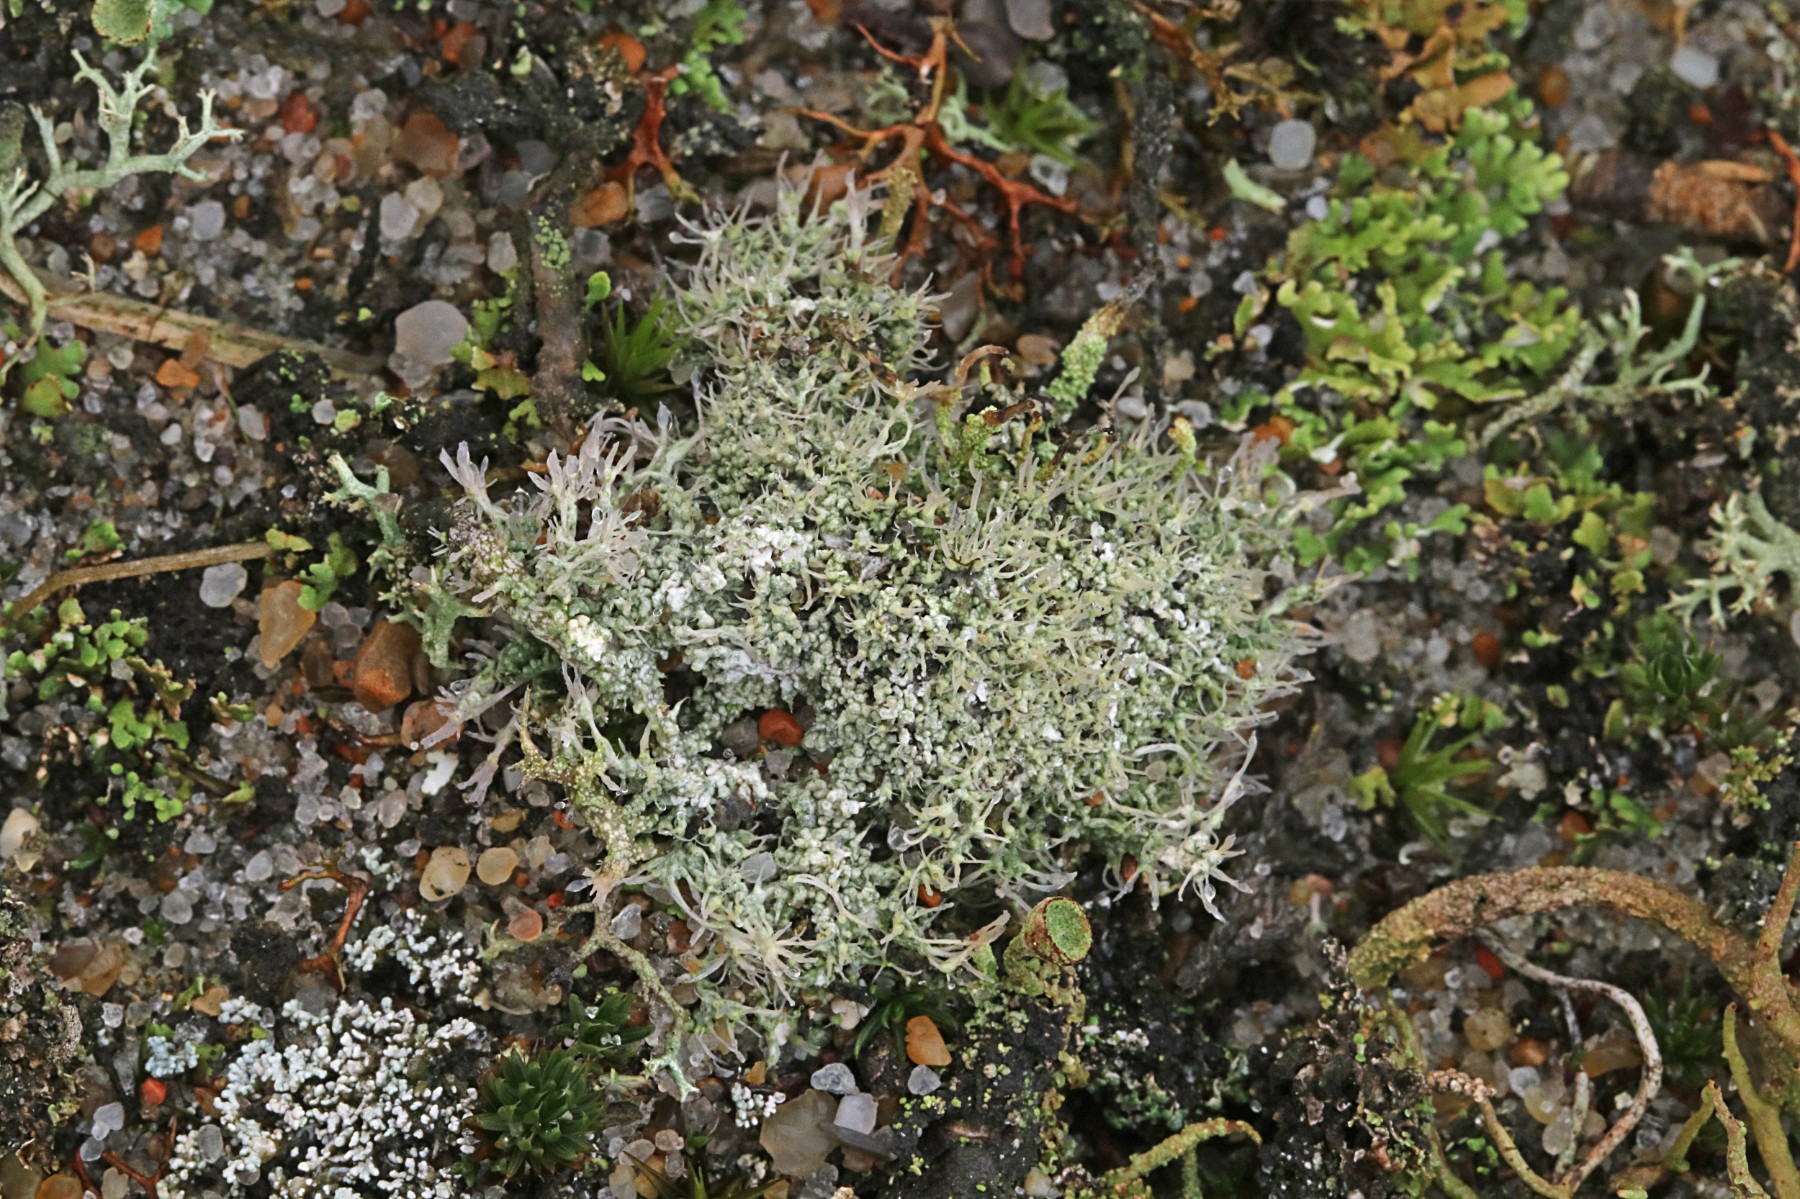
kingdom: Fungi
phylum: Ascomycota
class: Lecanoromycetes
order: Pertusariales
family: Ochrolechiaceae
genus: Ochrolechia
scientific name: Ochrolechia frigida
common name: fjeld-blegskivelav
